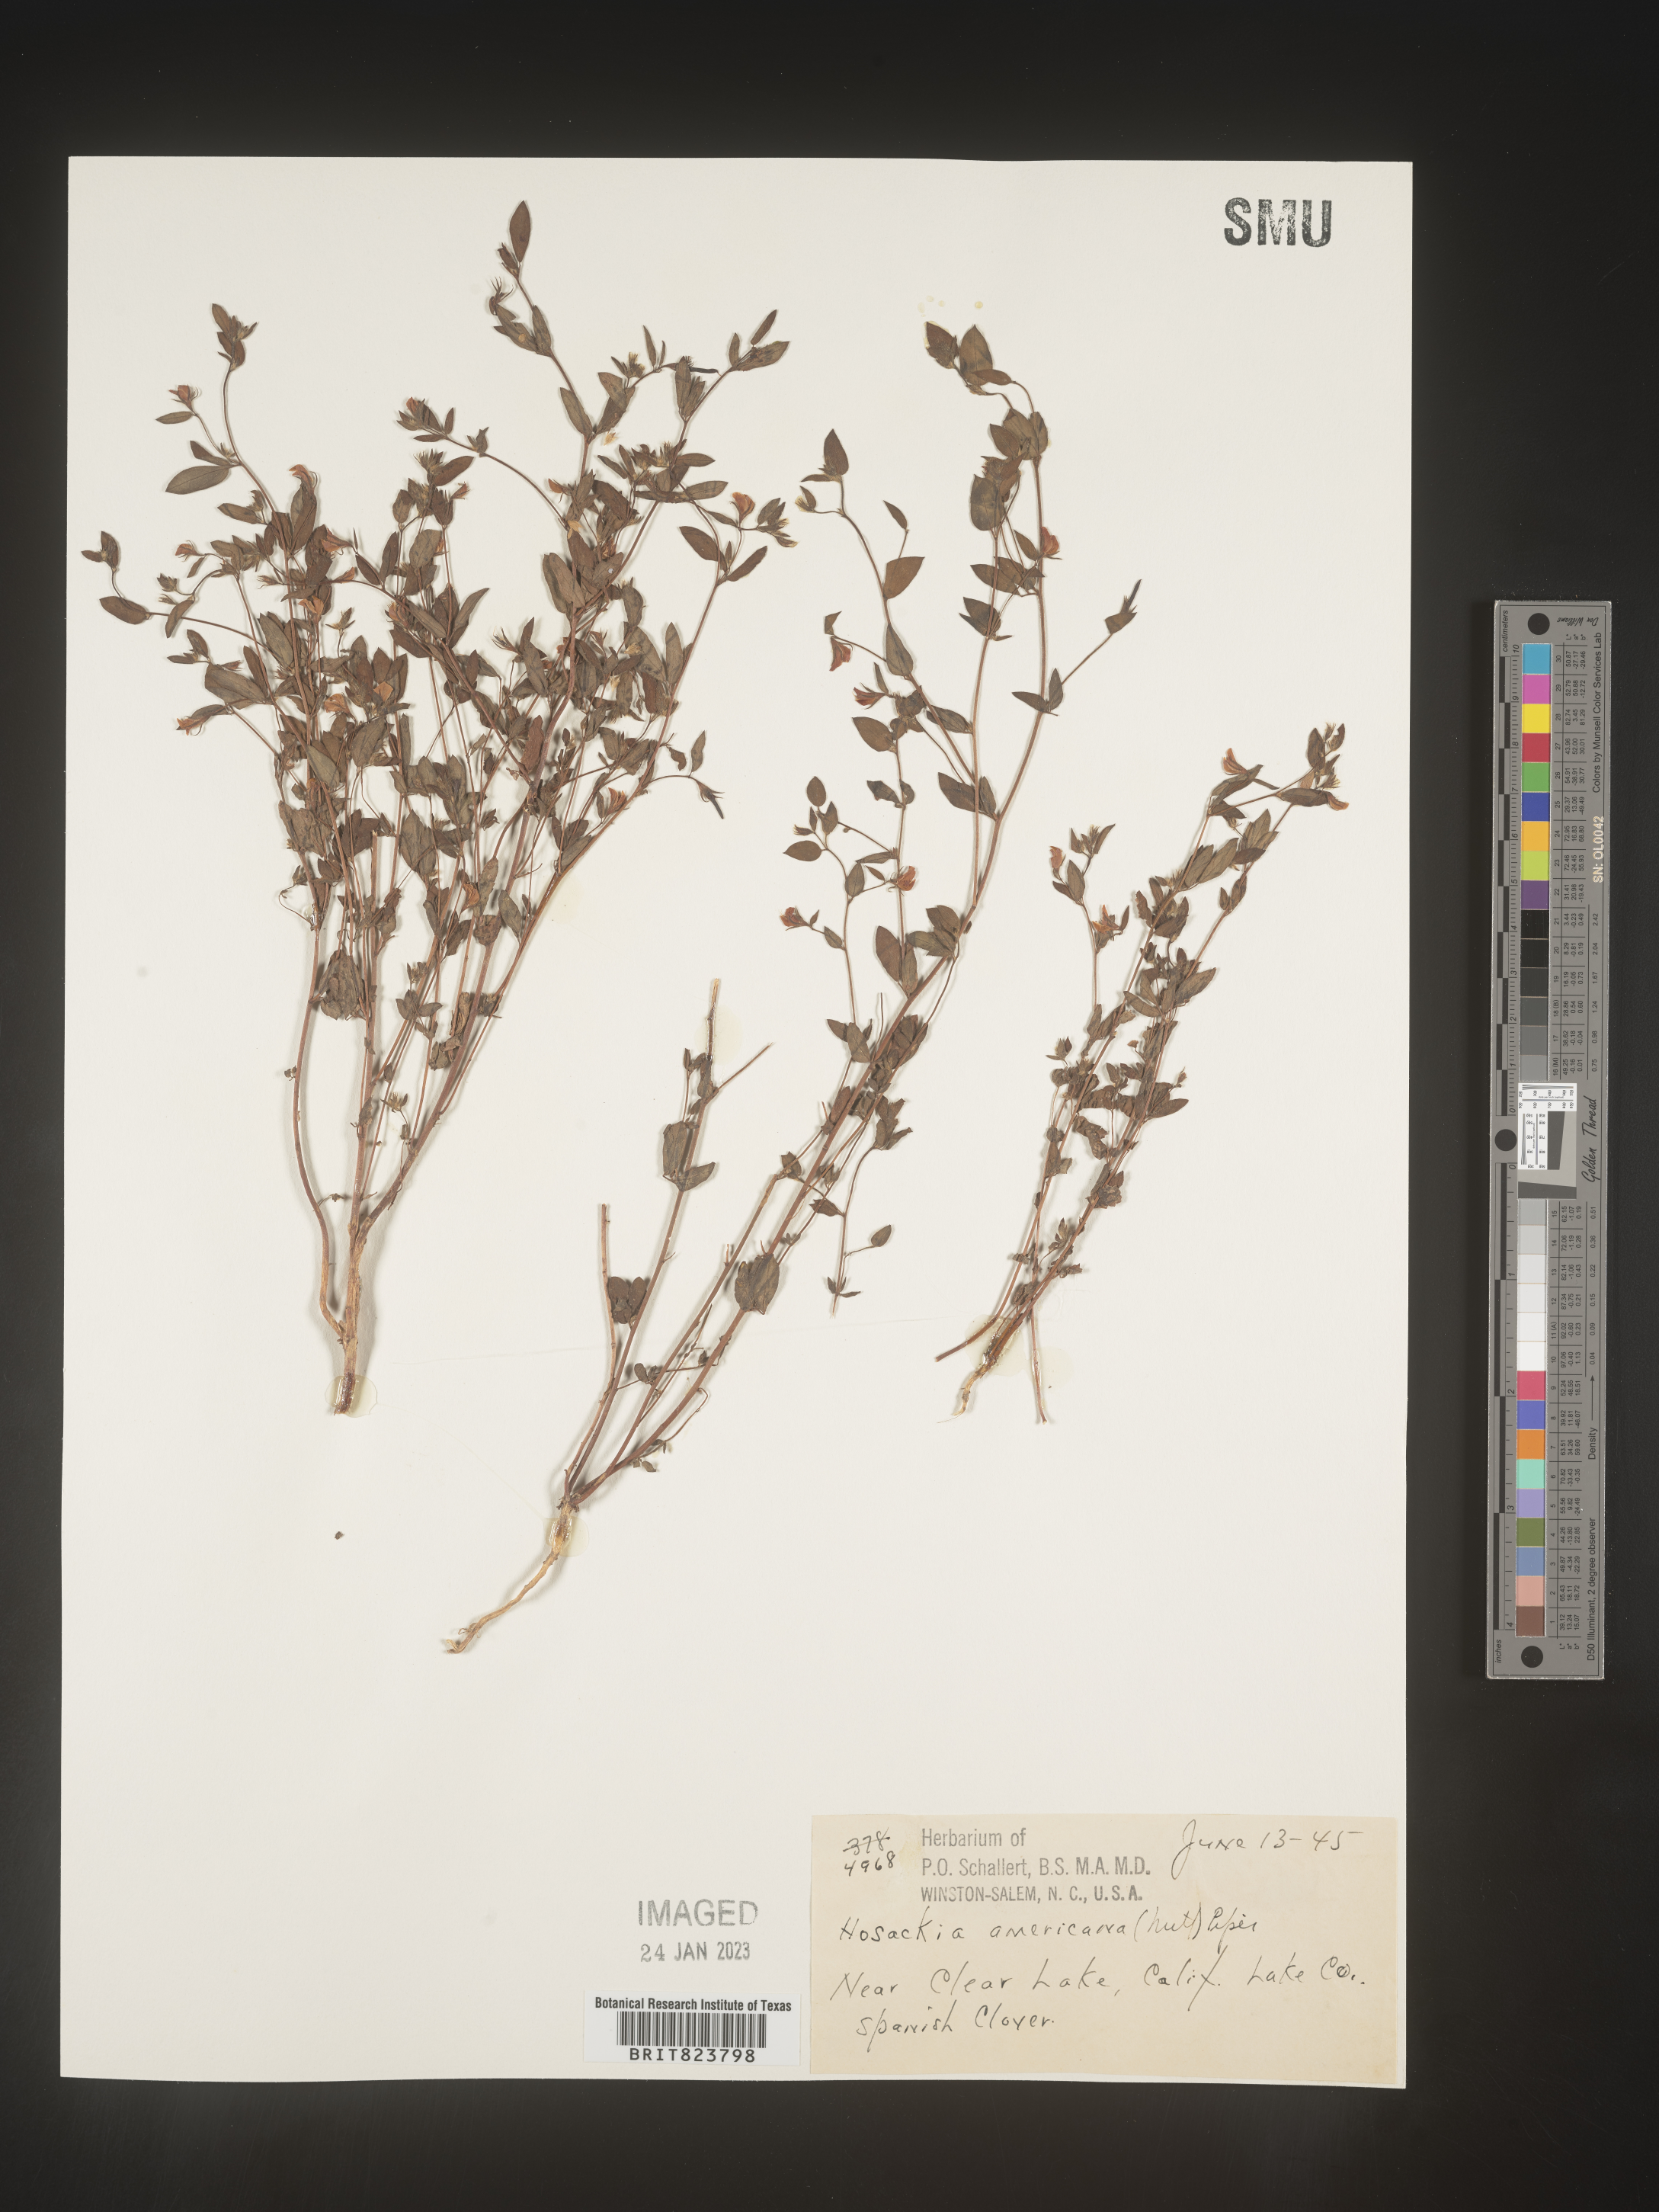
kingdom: Plantae
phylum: Tracheophyta
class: Magnoliopsida
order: Fabales
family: Fabaceae
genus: Acmispon
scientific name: Acmispon americanus
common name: American bird's-foot trefoil
